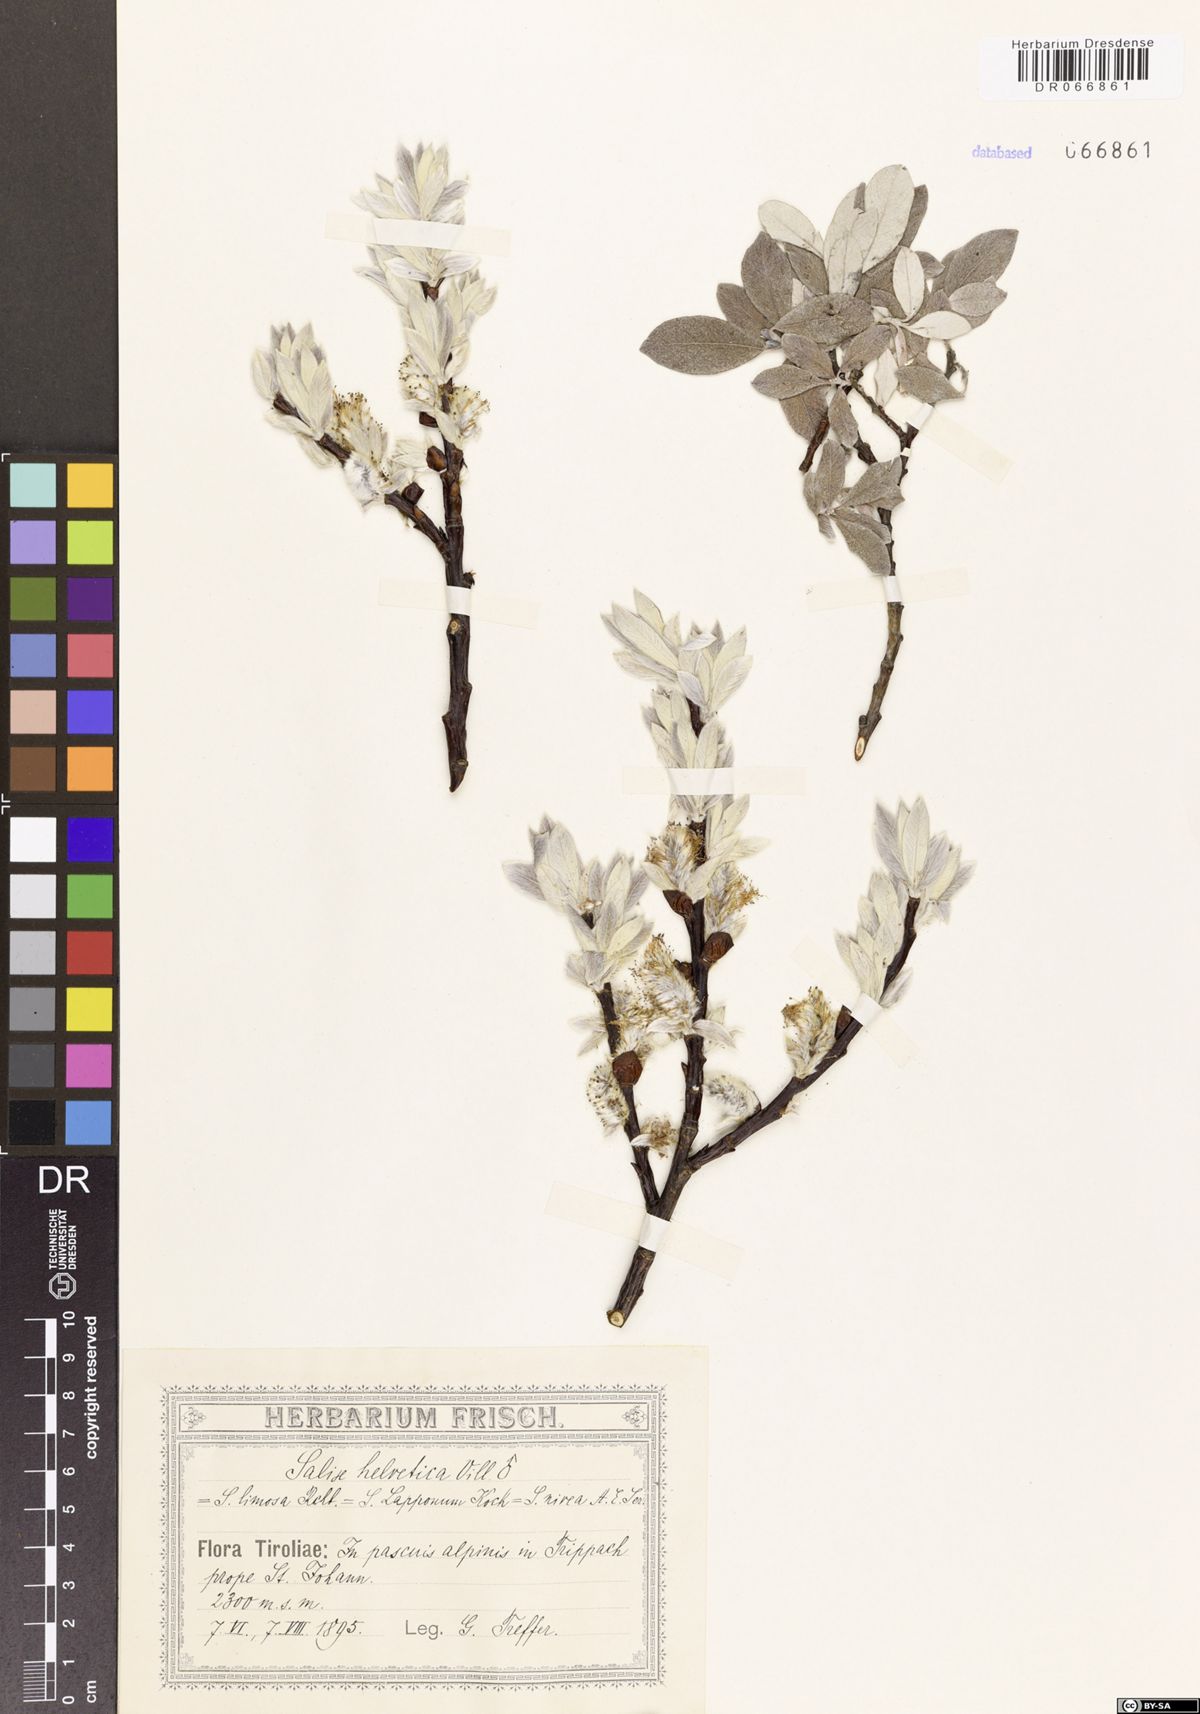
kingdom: Plantae
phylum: Tracheophyta
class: Magnoliopsida
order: Malpighiales
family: Salicaceae
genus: Salix
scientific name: Salix helvetica
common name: Swiss willow
